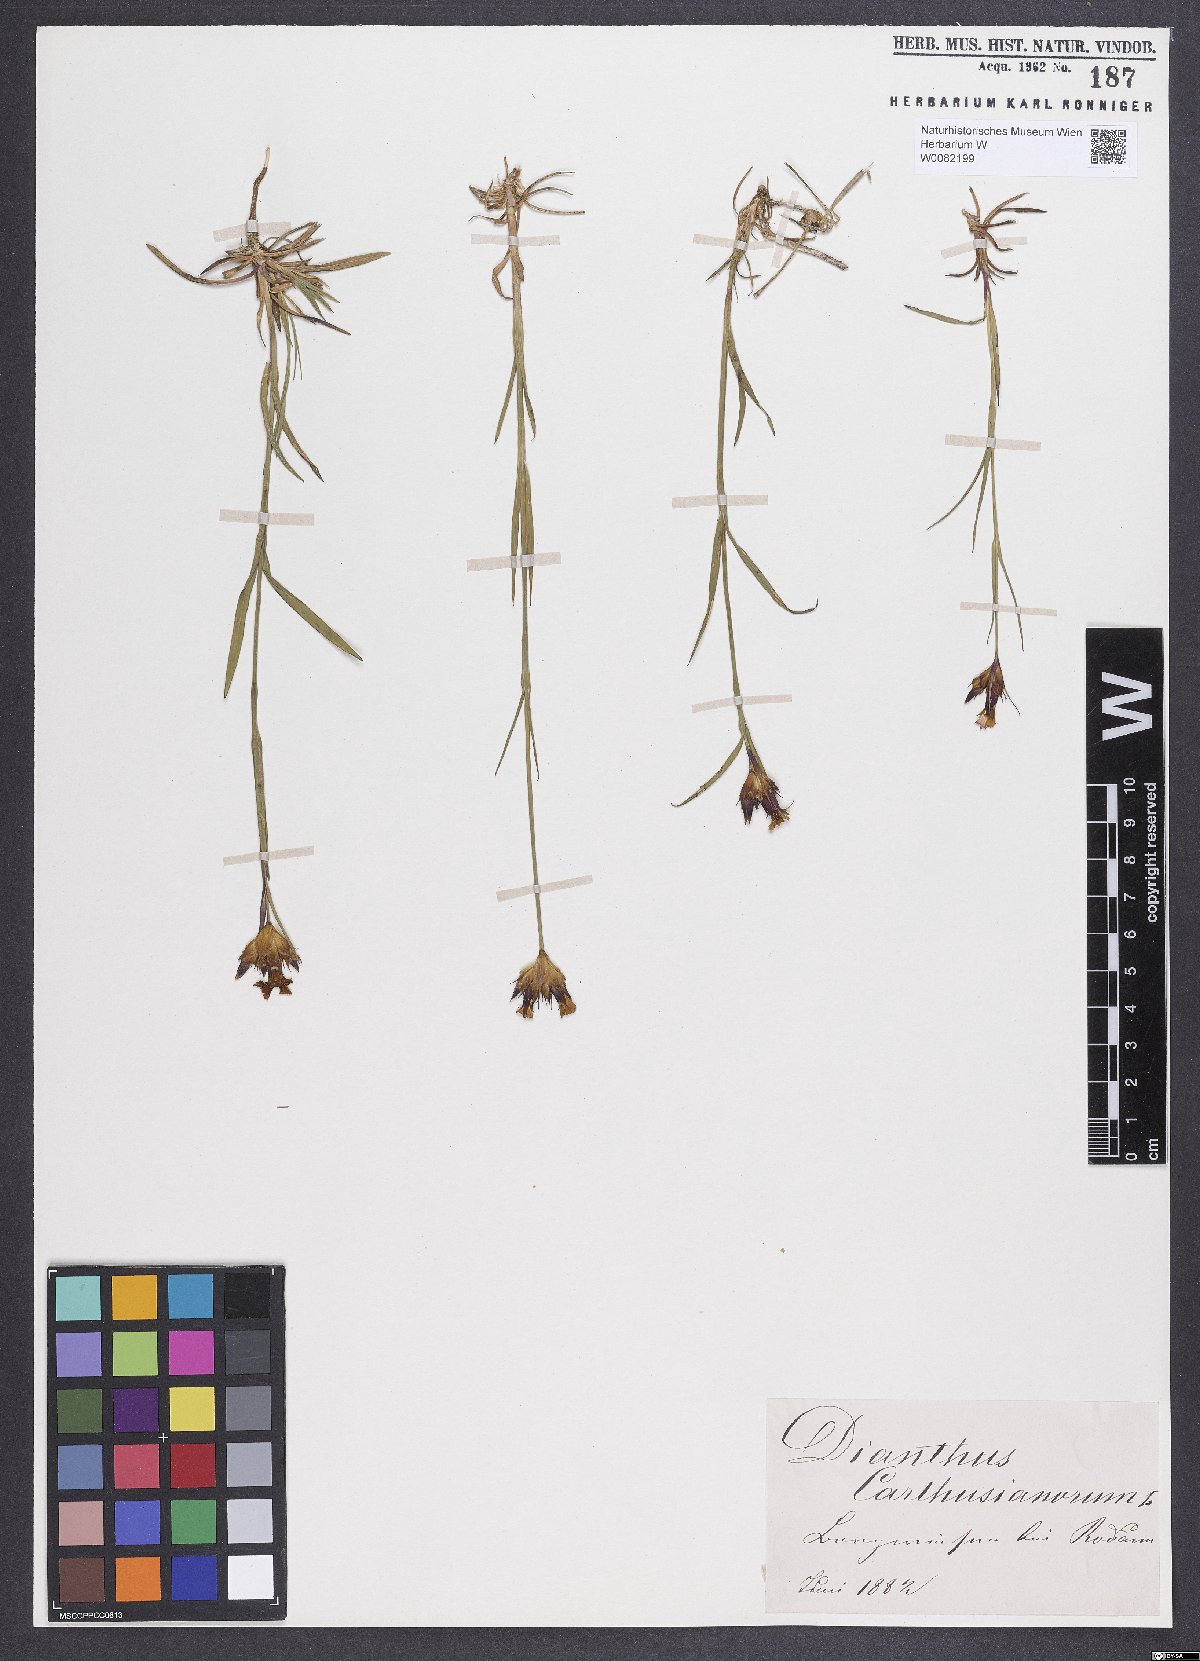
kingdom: Plantae
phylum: Tracheophyta
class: Magnoliopsida
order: Caryophyllales
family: Caryophyllaceae
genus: Dianthus
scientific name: Dianthus carthusianorum
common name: Carthusian pink
